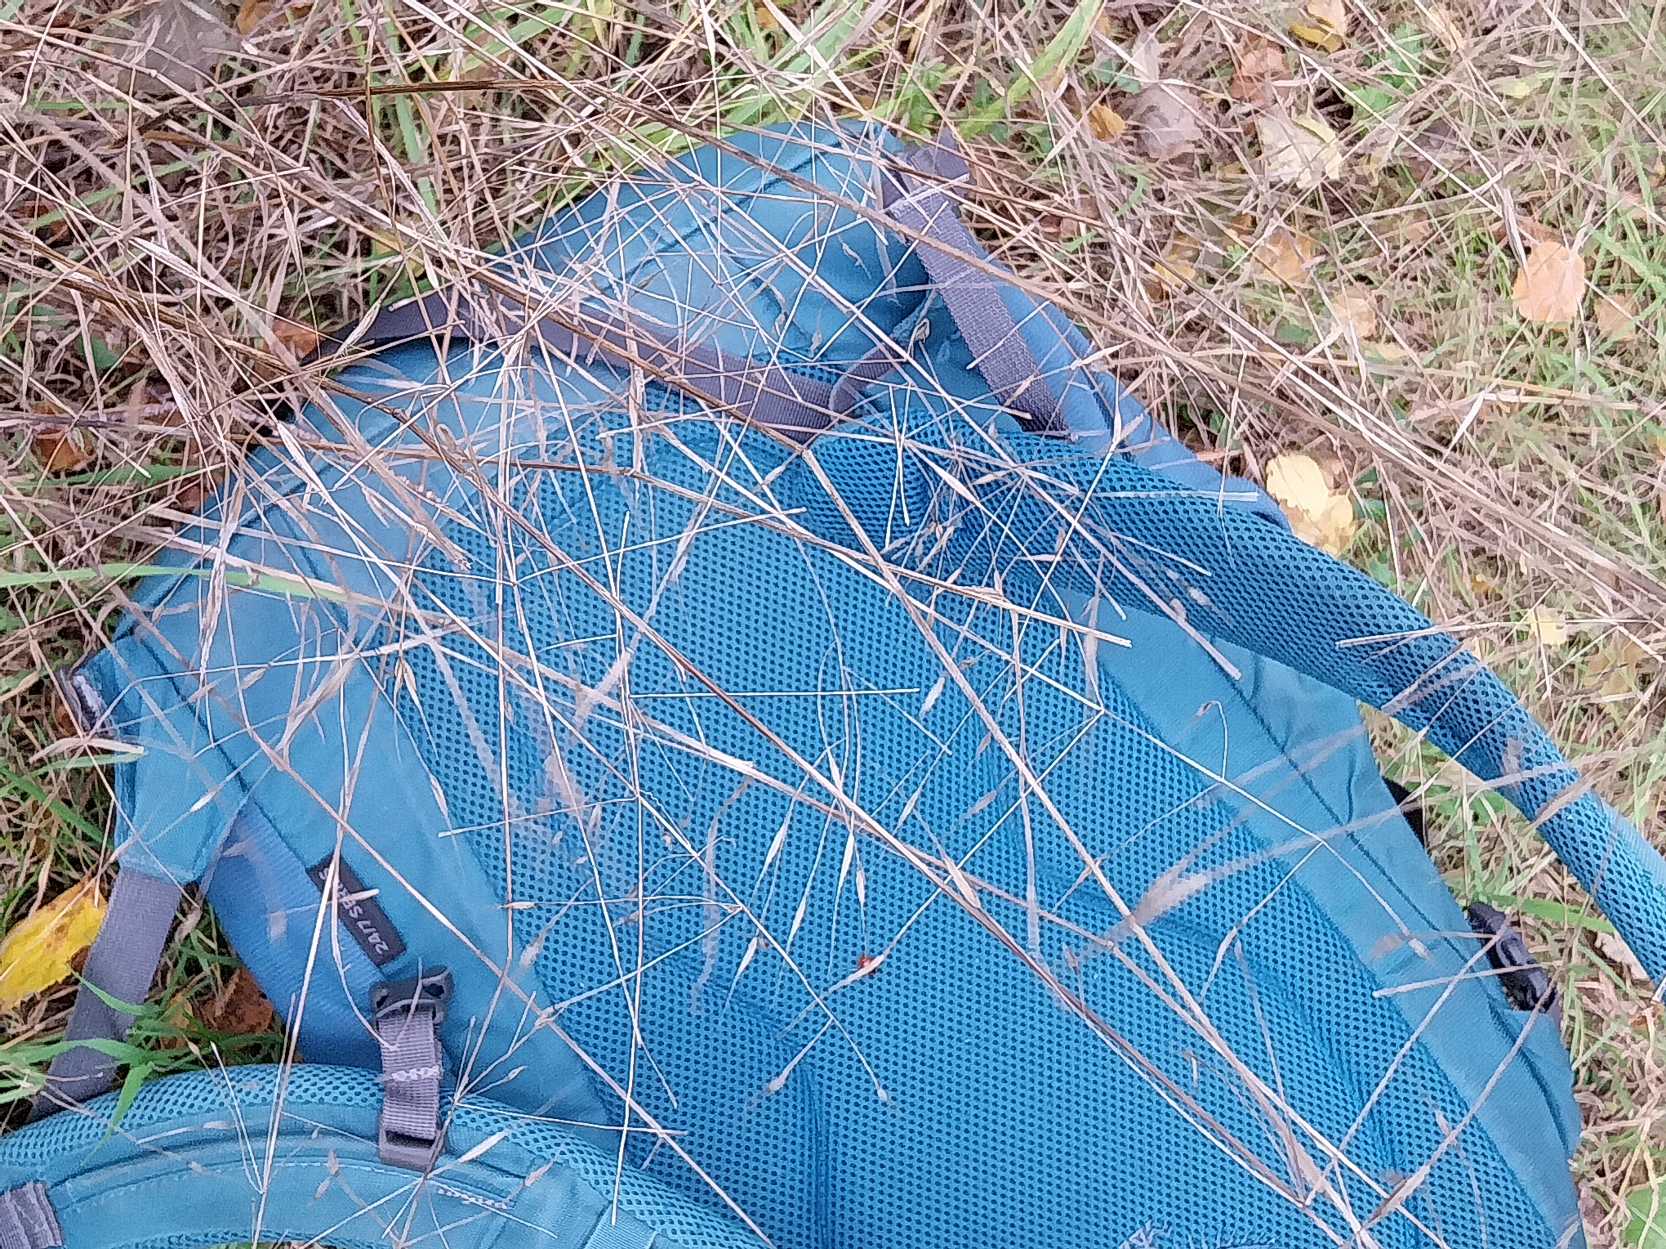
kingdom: Plantae
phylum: Tracheophyta
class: Liliopsida
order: Poales
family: Poaceae
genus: Bromus
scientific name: Bromus sterilis
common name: Gold hejre
